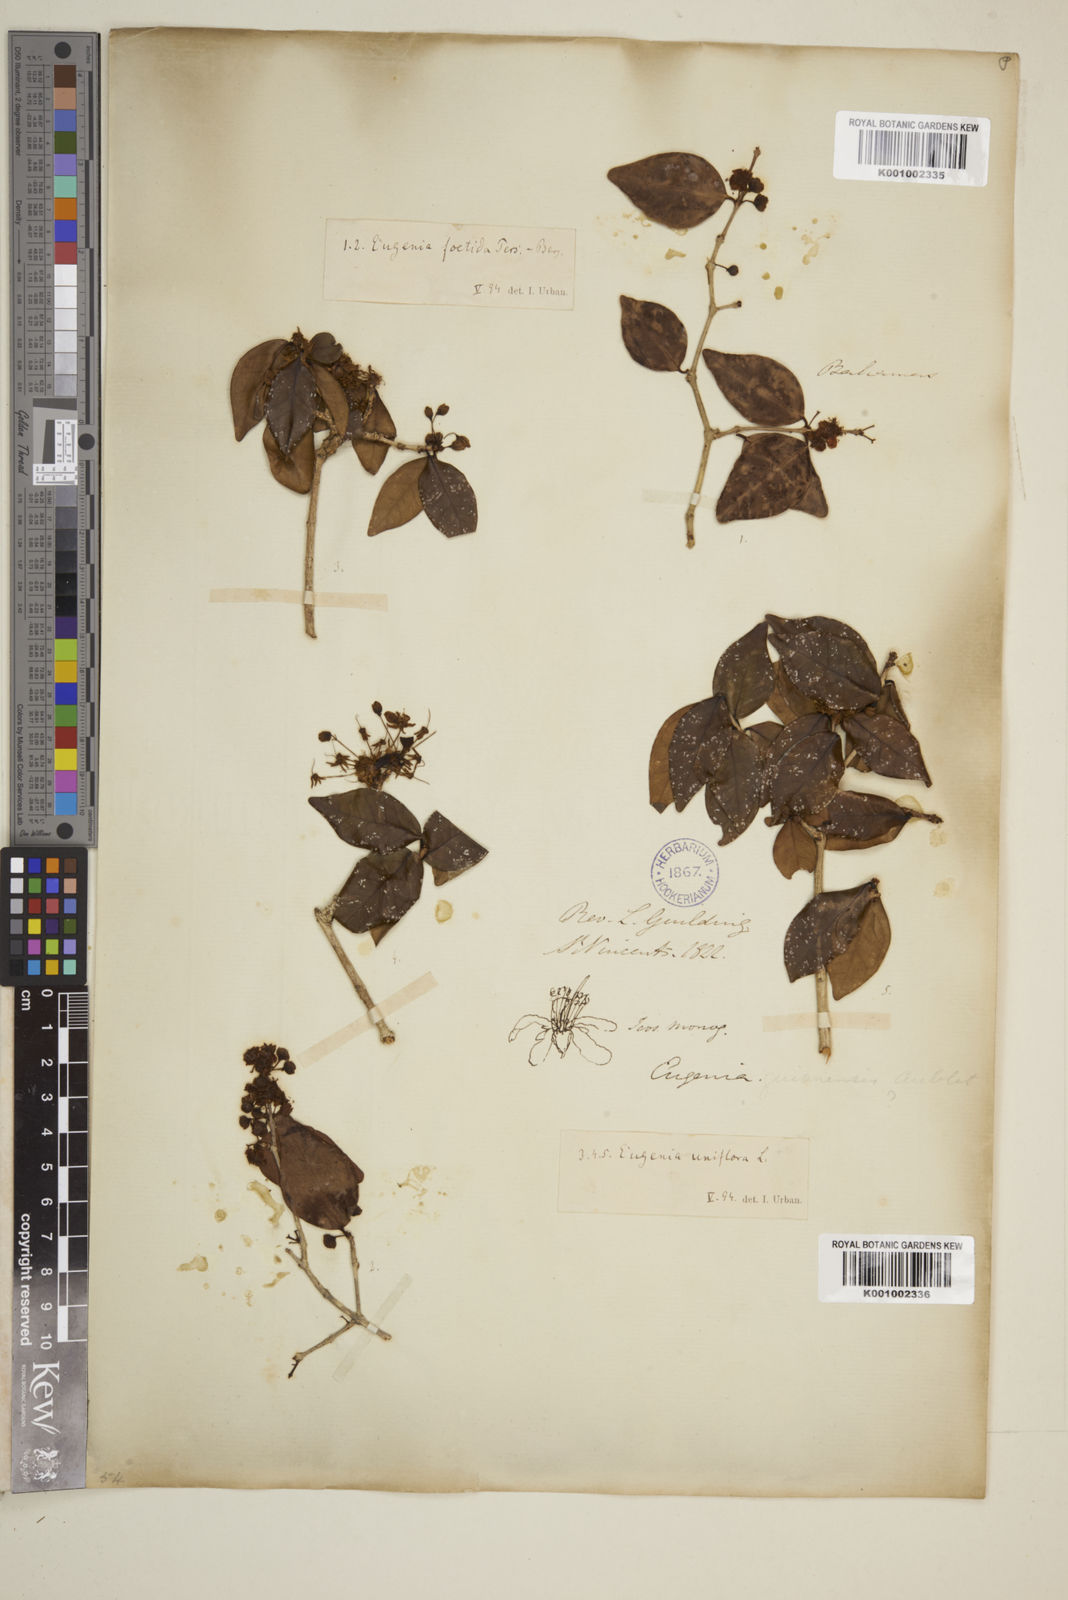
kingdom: Plantae
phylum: Tracheophyta
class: Magnoliopsida
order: Myrtales
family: Myrtaceae
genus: Eugenia
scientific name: Eugenia uniflora
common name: Surinam cherry
